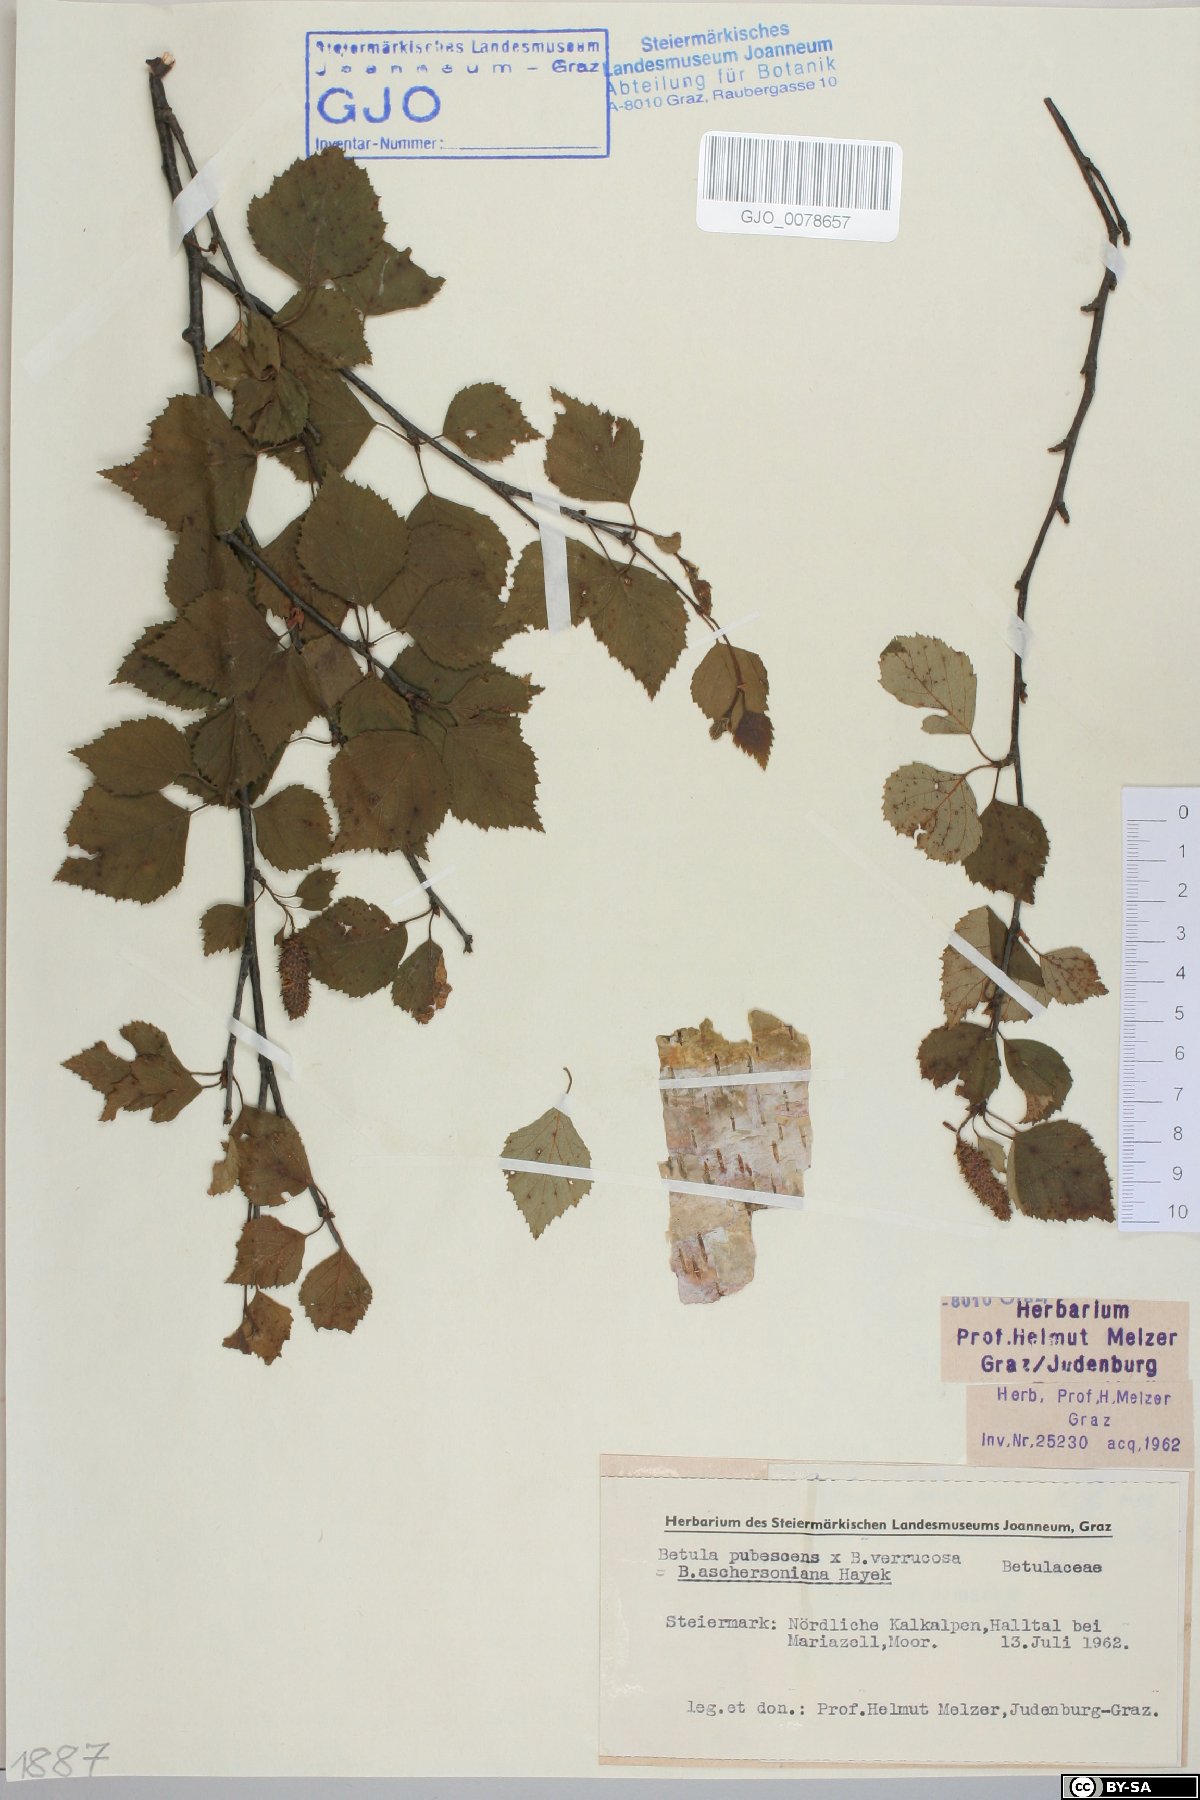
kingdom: Plantae
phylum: Tracheophyta
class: Magnoliopsida
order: Fagales
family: Betulaceae
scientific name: Betulaceae
